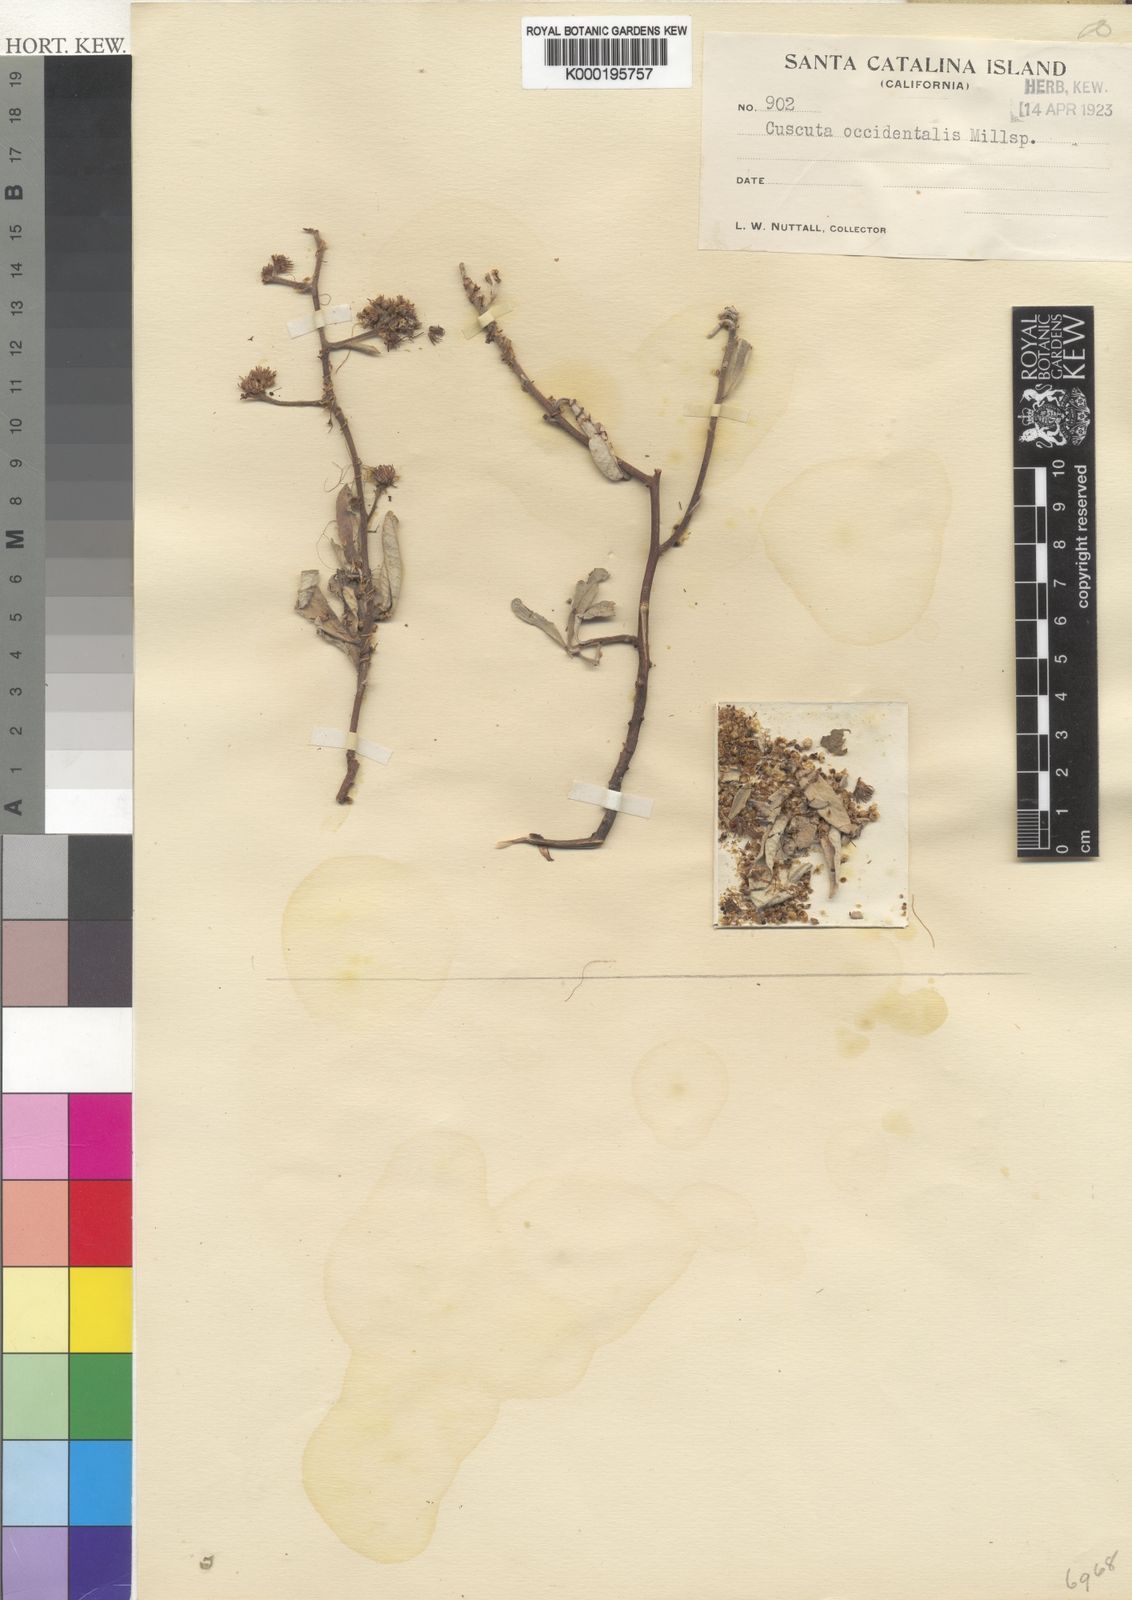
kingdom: Plantae
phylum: Tracheophyta
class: Magnoliopsida
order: Solanales
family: Convolvulaceae
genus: Cuscuta
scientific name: Cuscuta occidentalis
